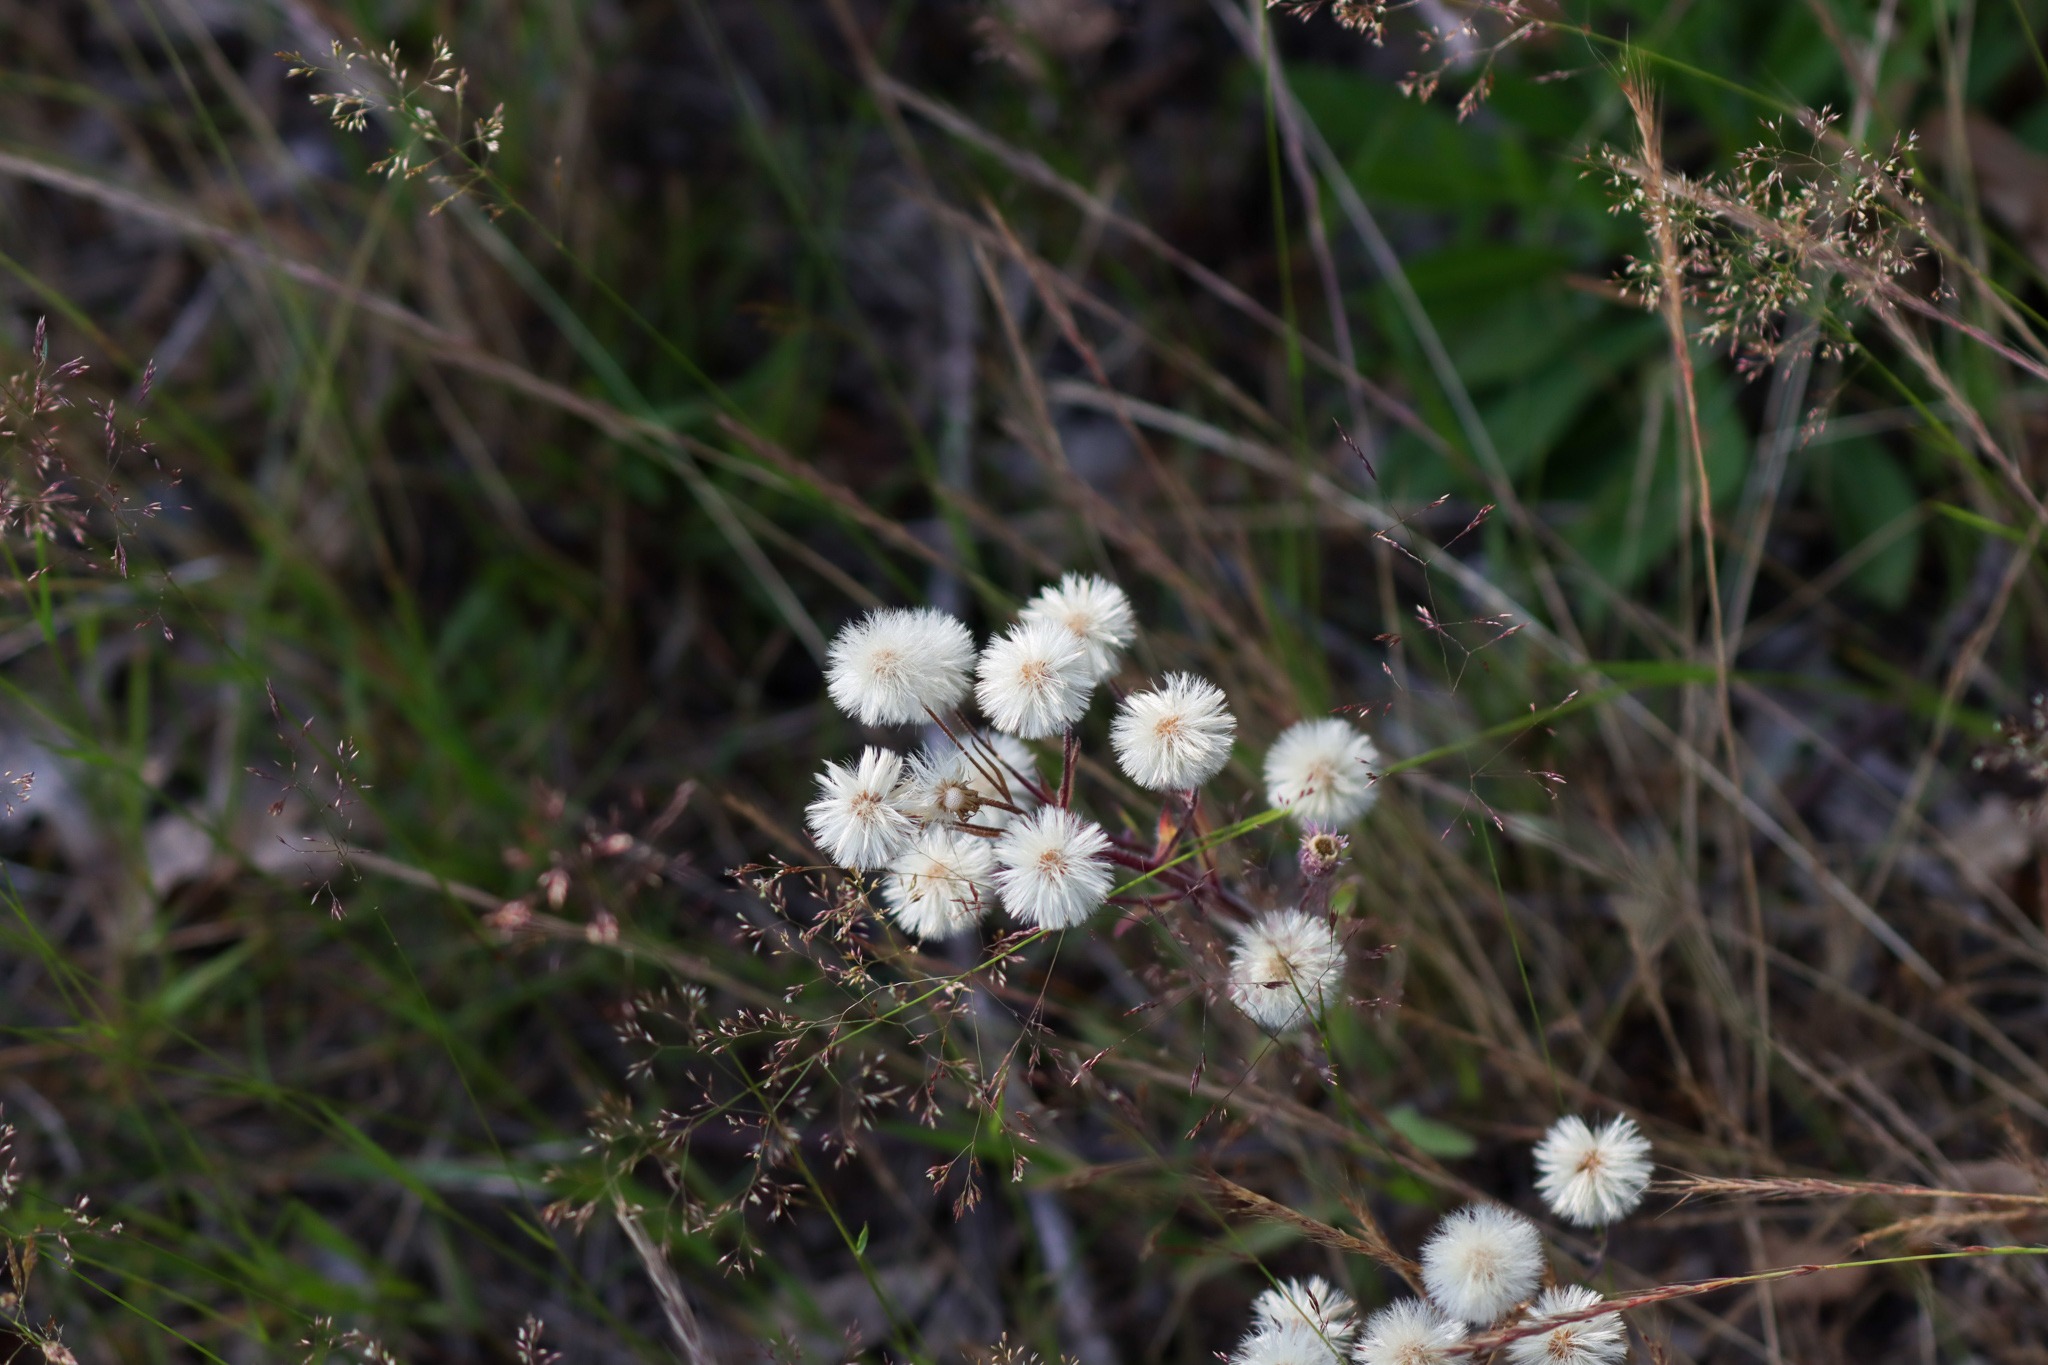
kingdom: Plantae
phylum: Tracheophyta
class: Magnoliopsida
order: Asterales
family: Asteraceae
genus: Erigeron
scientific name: Erigeron acris
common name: Bitter bakkestjerne
